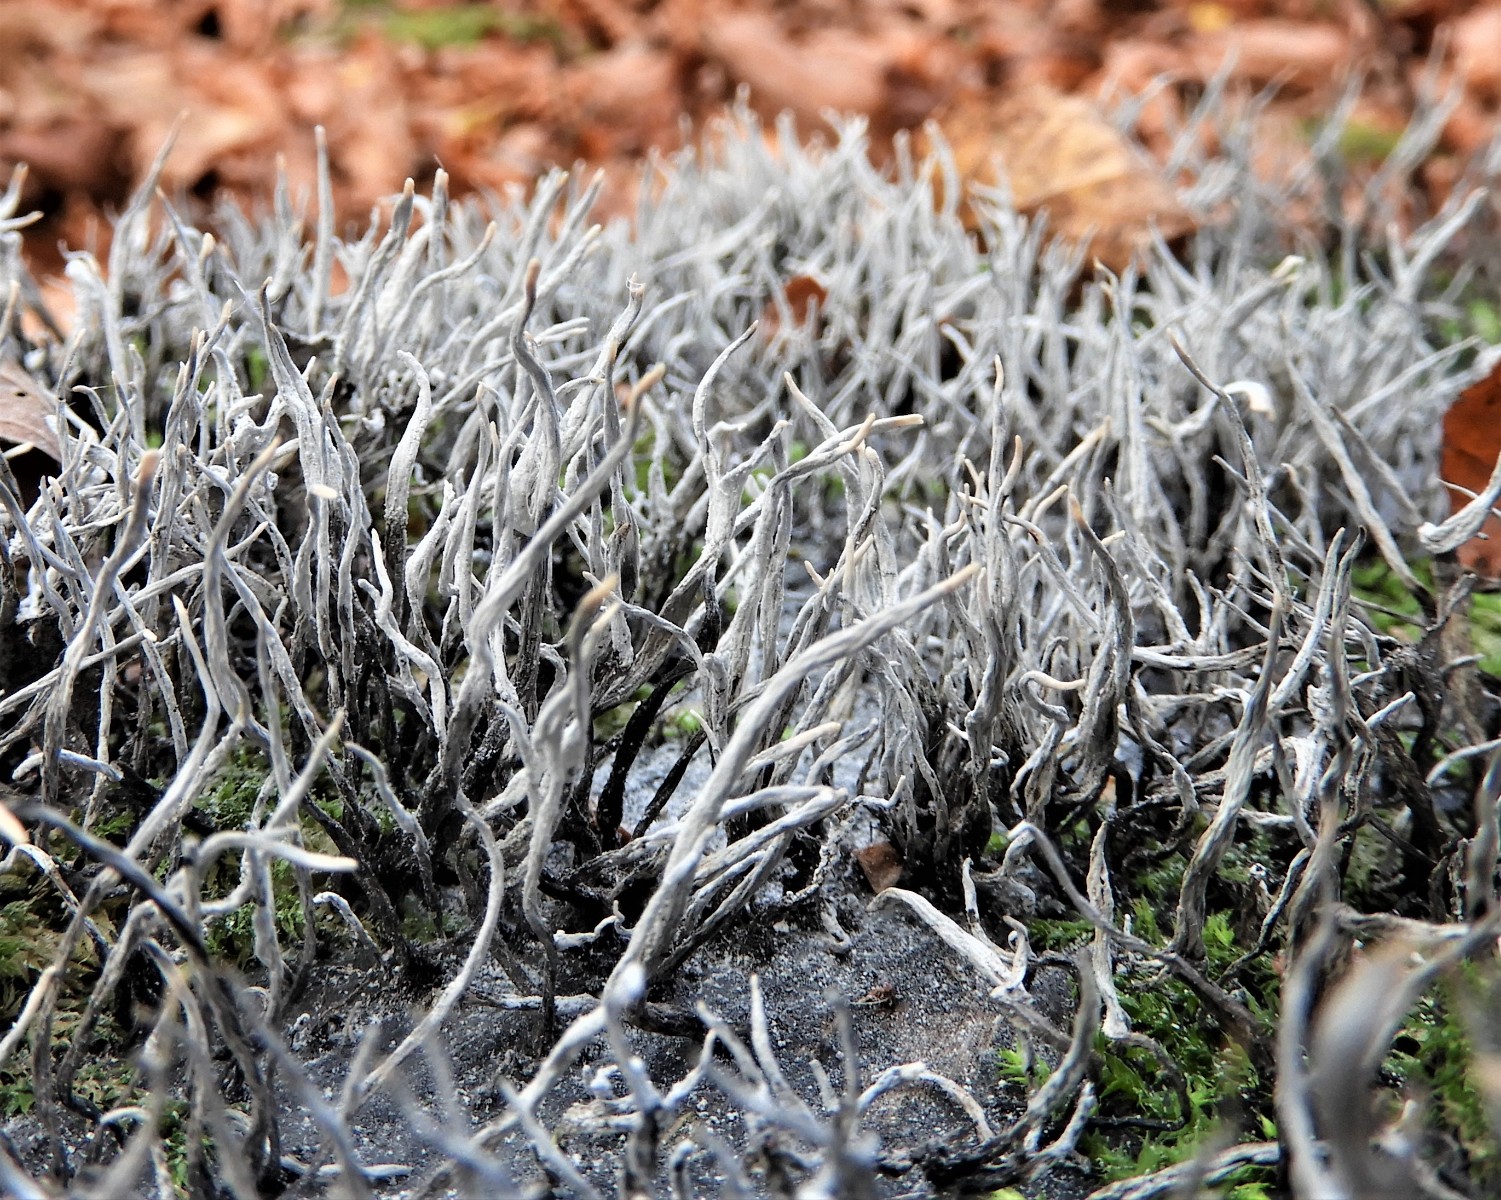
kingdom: Fungi
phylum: Ascomycota
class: Sordariomycetes
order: Xylariales
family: Xylariaceae
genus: Xylaria
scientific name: Xylaria hypoxylon
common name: grenet stødsvamp
